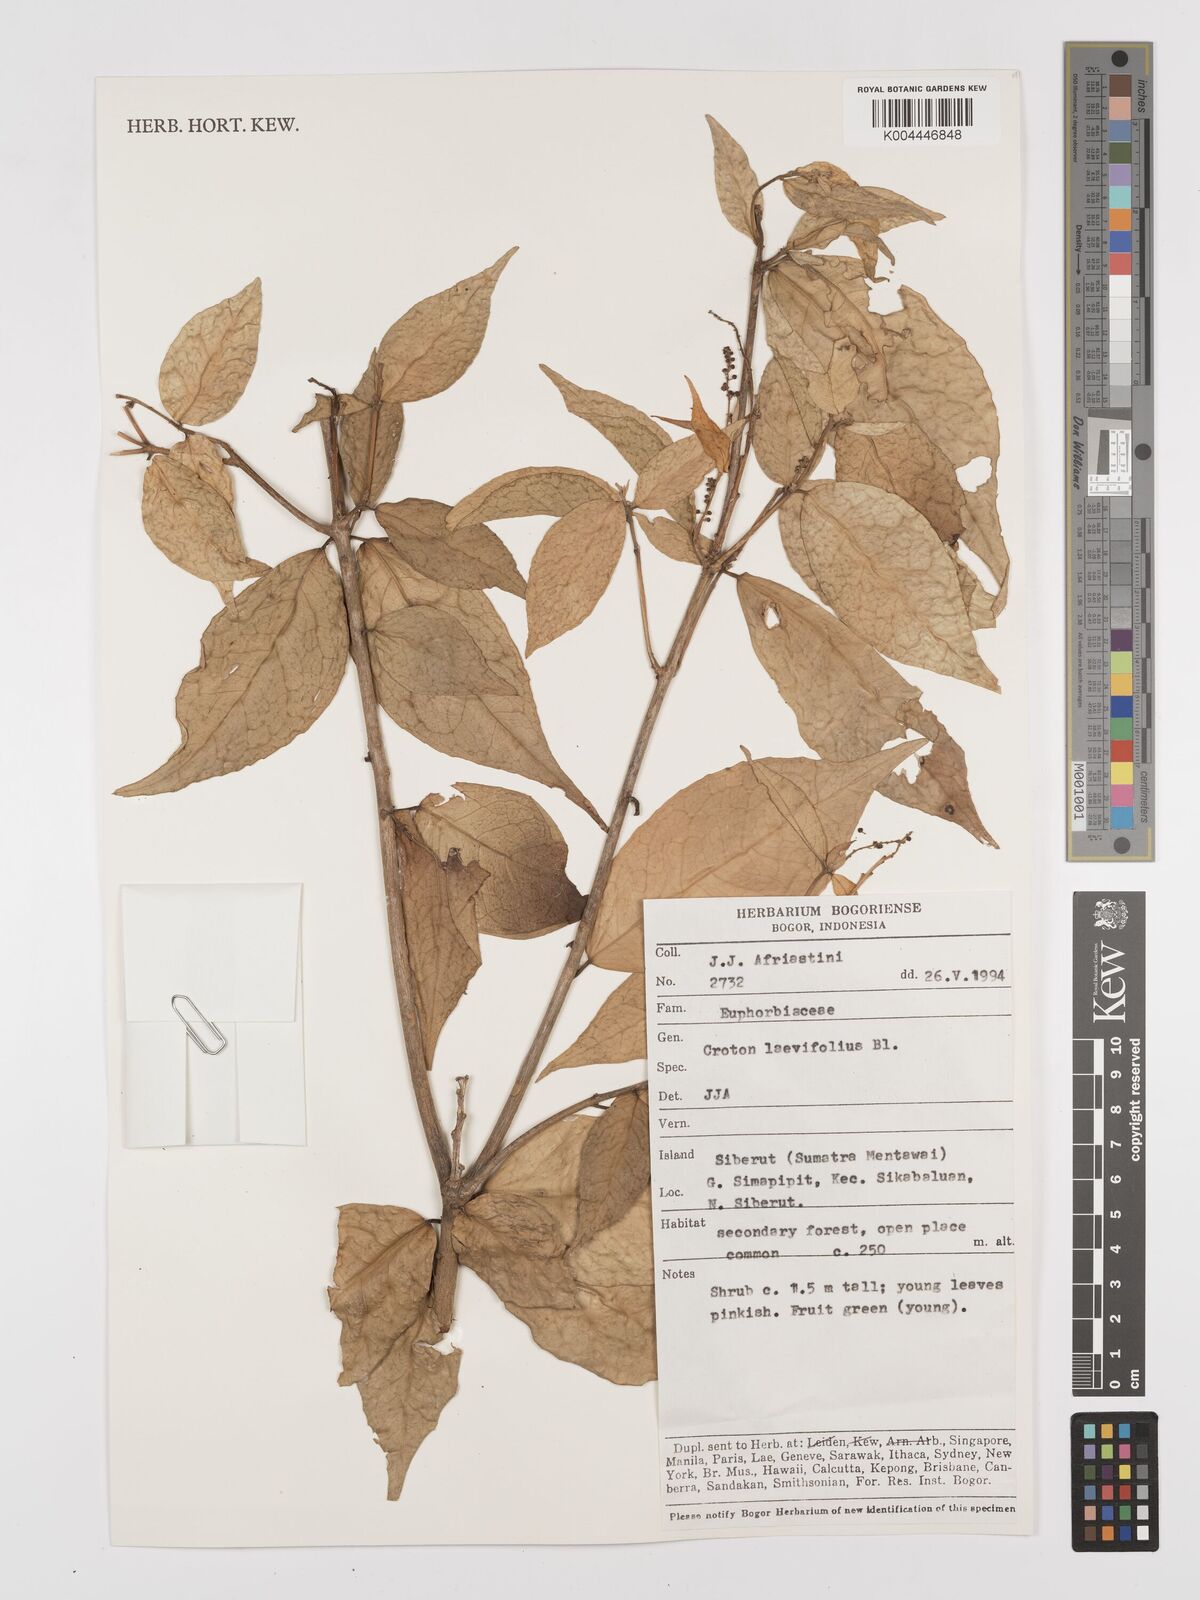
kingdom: Plantae
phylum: Tracheophyta
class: Magnoliopsida
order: Malpighiales
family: Euphorbiaceae
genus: Croton
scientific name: Croton oblongus
